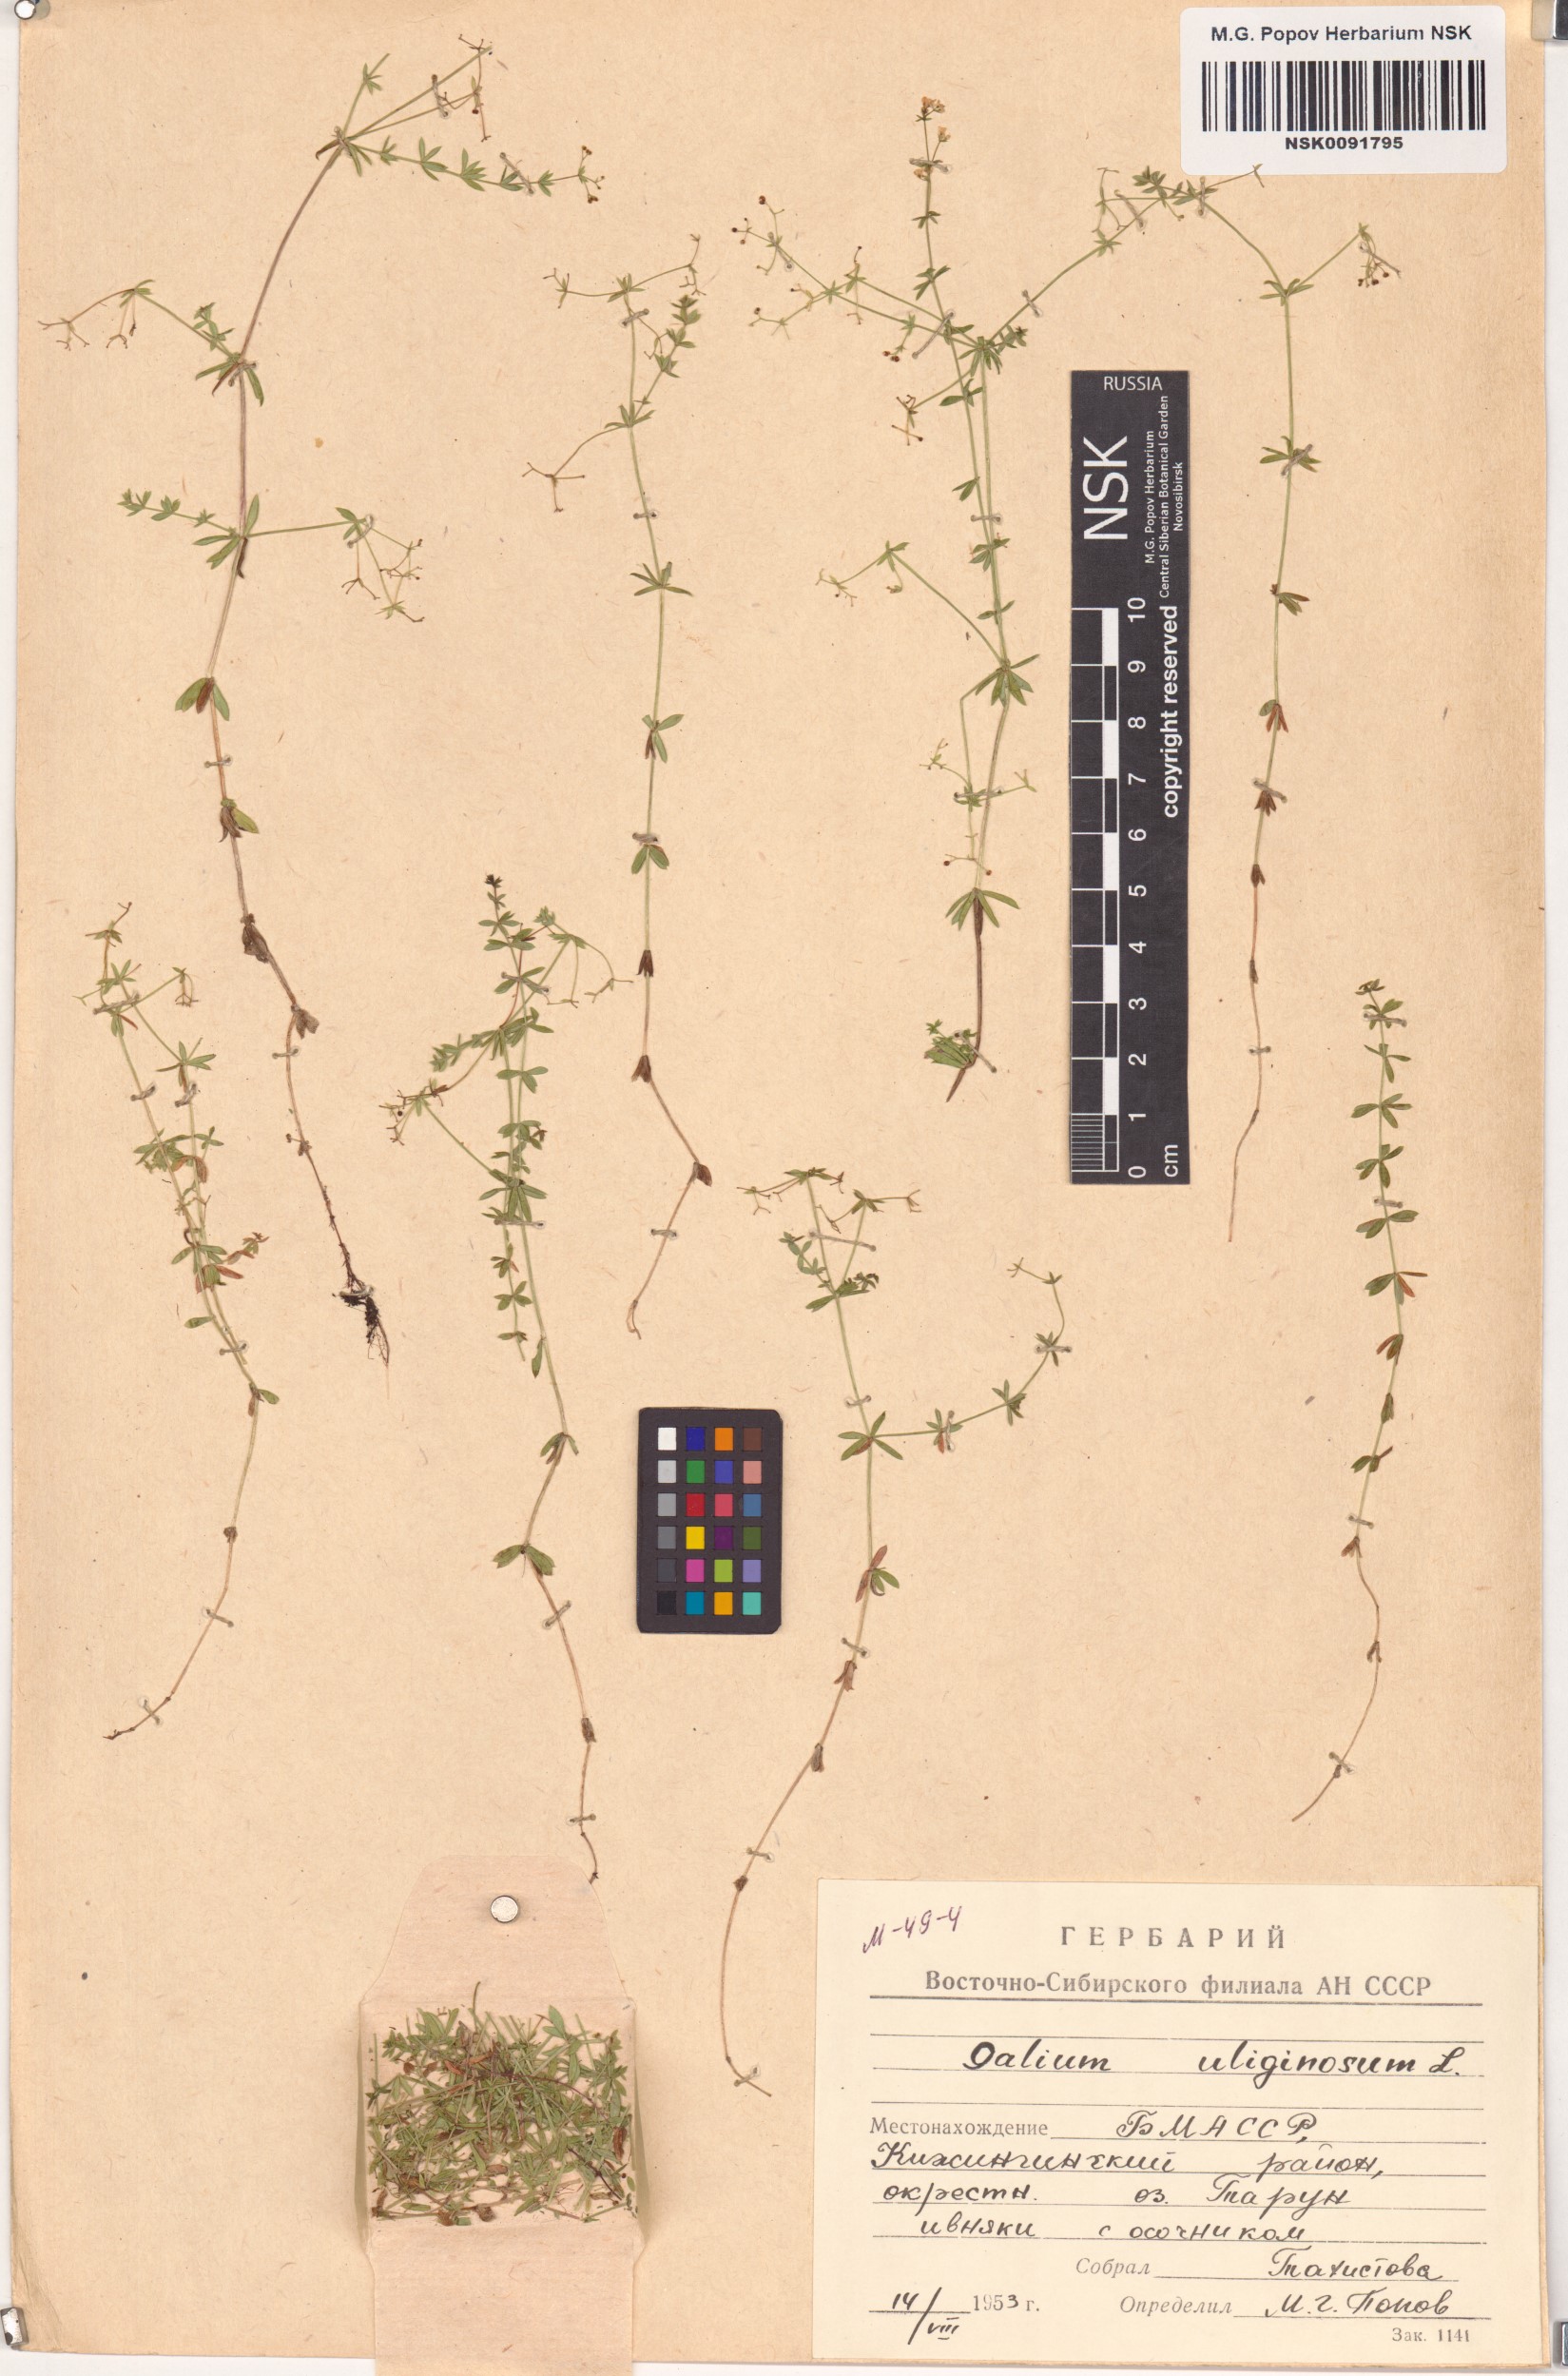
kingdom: Plantae
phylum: Tracheophyta
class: Magnoliopsida
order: Gentianales
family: Rubiaceae
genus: Galium
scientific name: Galium uliginosum
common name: Fen bedstraw
